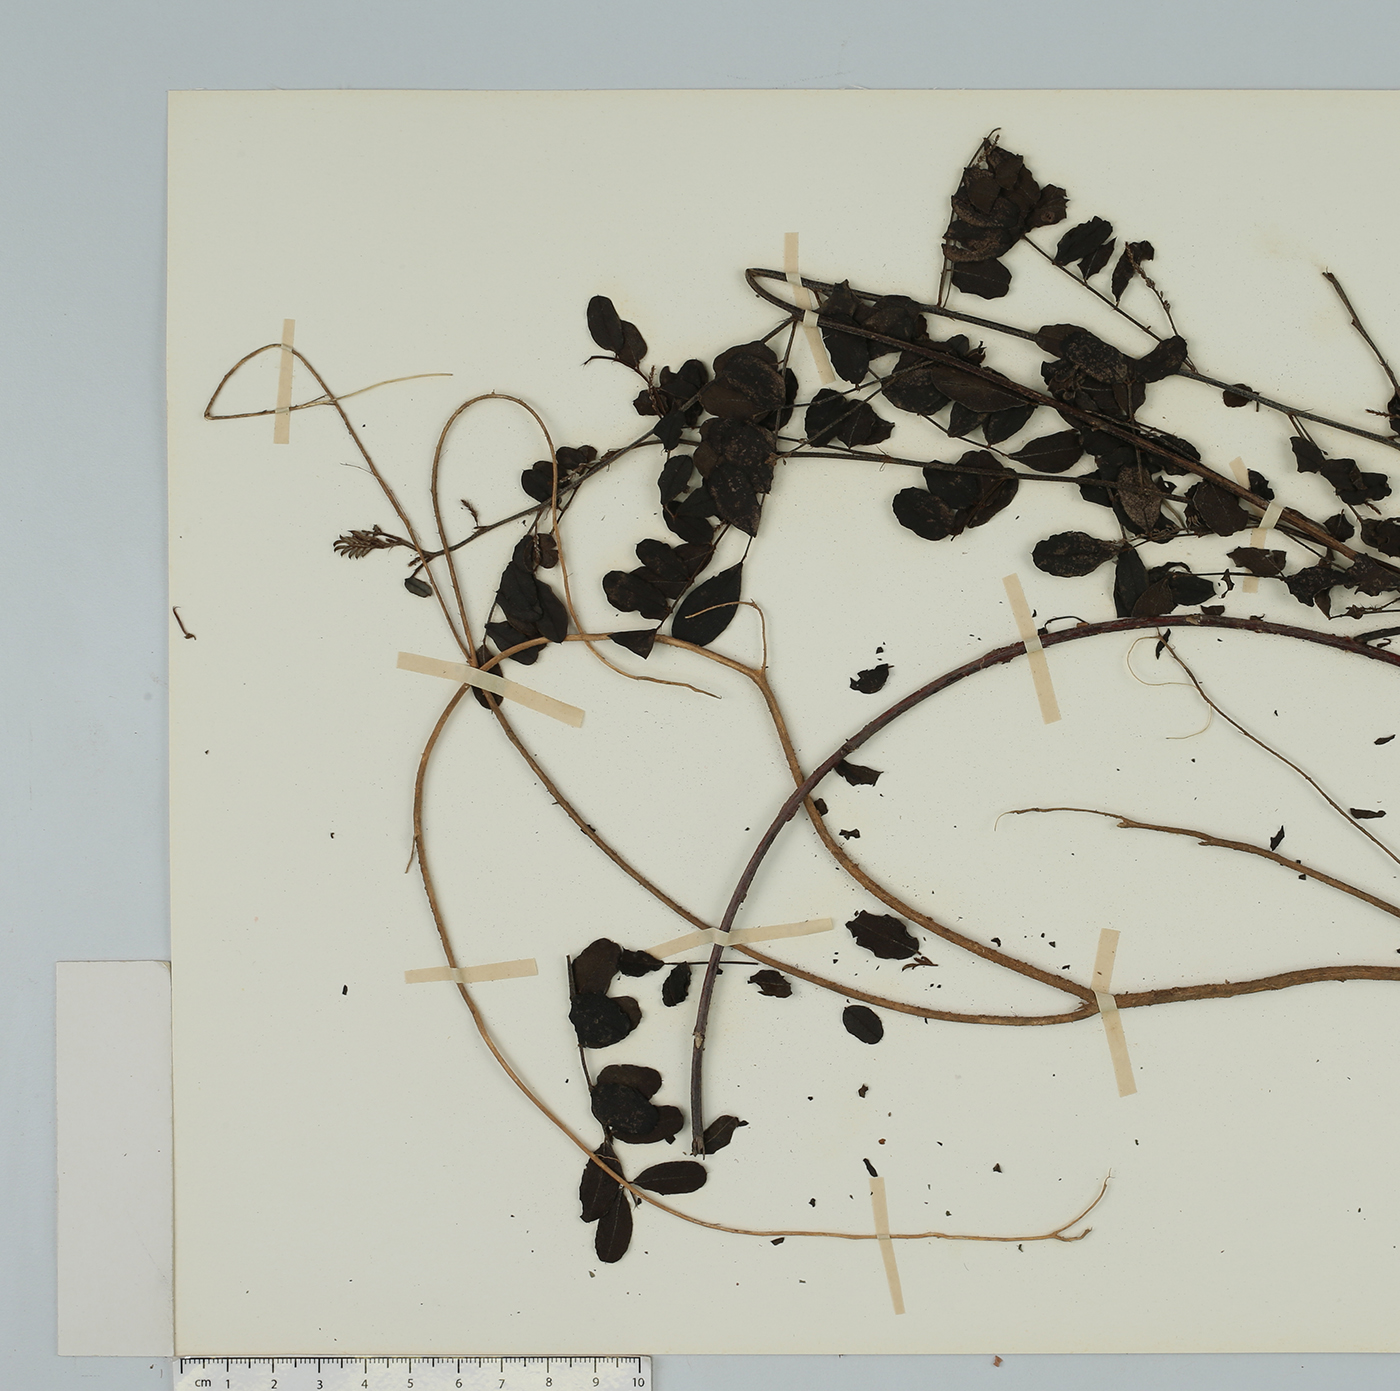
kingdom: Plantae
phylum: Tracheophyta
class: Magnoliopsida
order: Fabales
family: Fabaceae
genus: Indigofera
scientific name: Indigofera cylindracea
